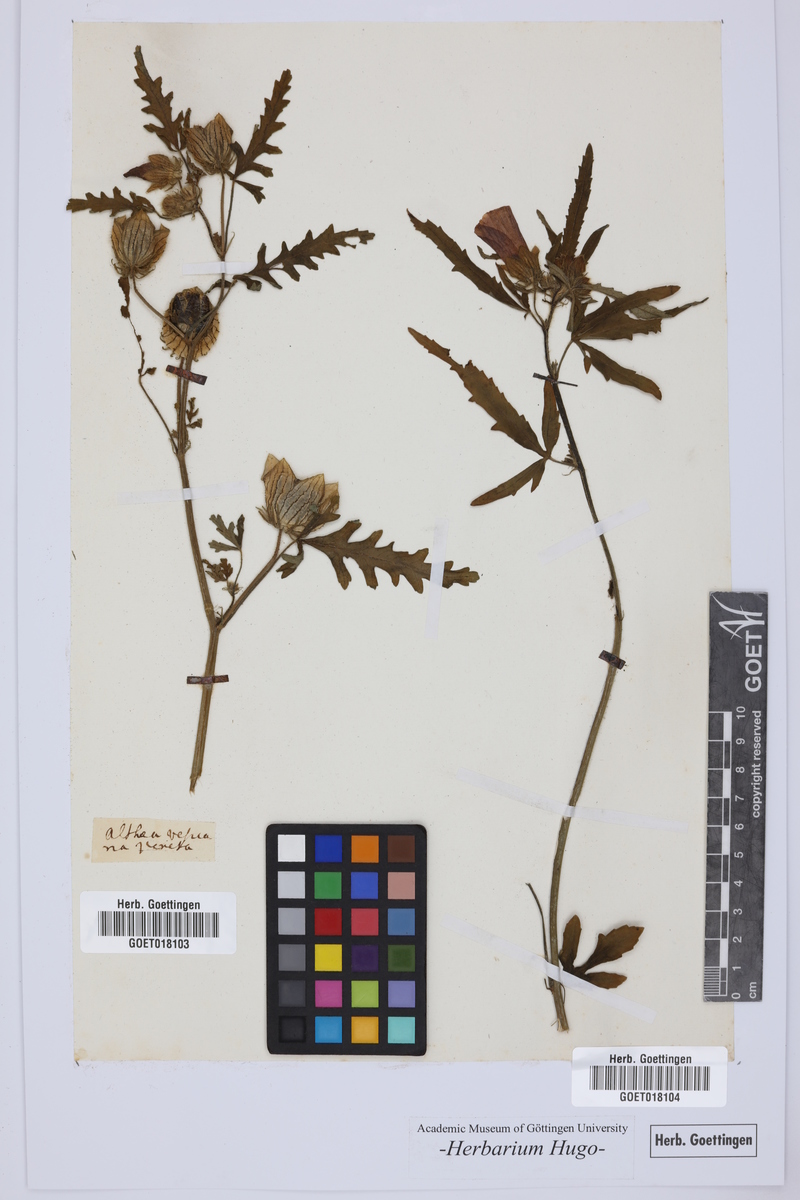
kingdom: Plantae
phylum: Tracheophyta
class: Magnoliopsida
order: Malvales
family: Malvaceae
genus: Althaea
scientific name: Althaea
